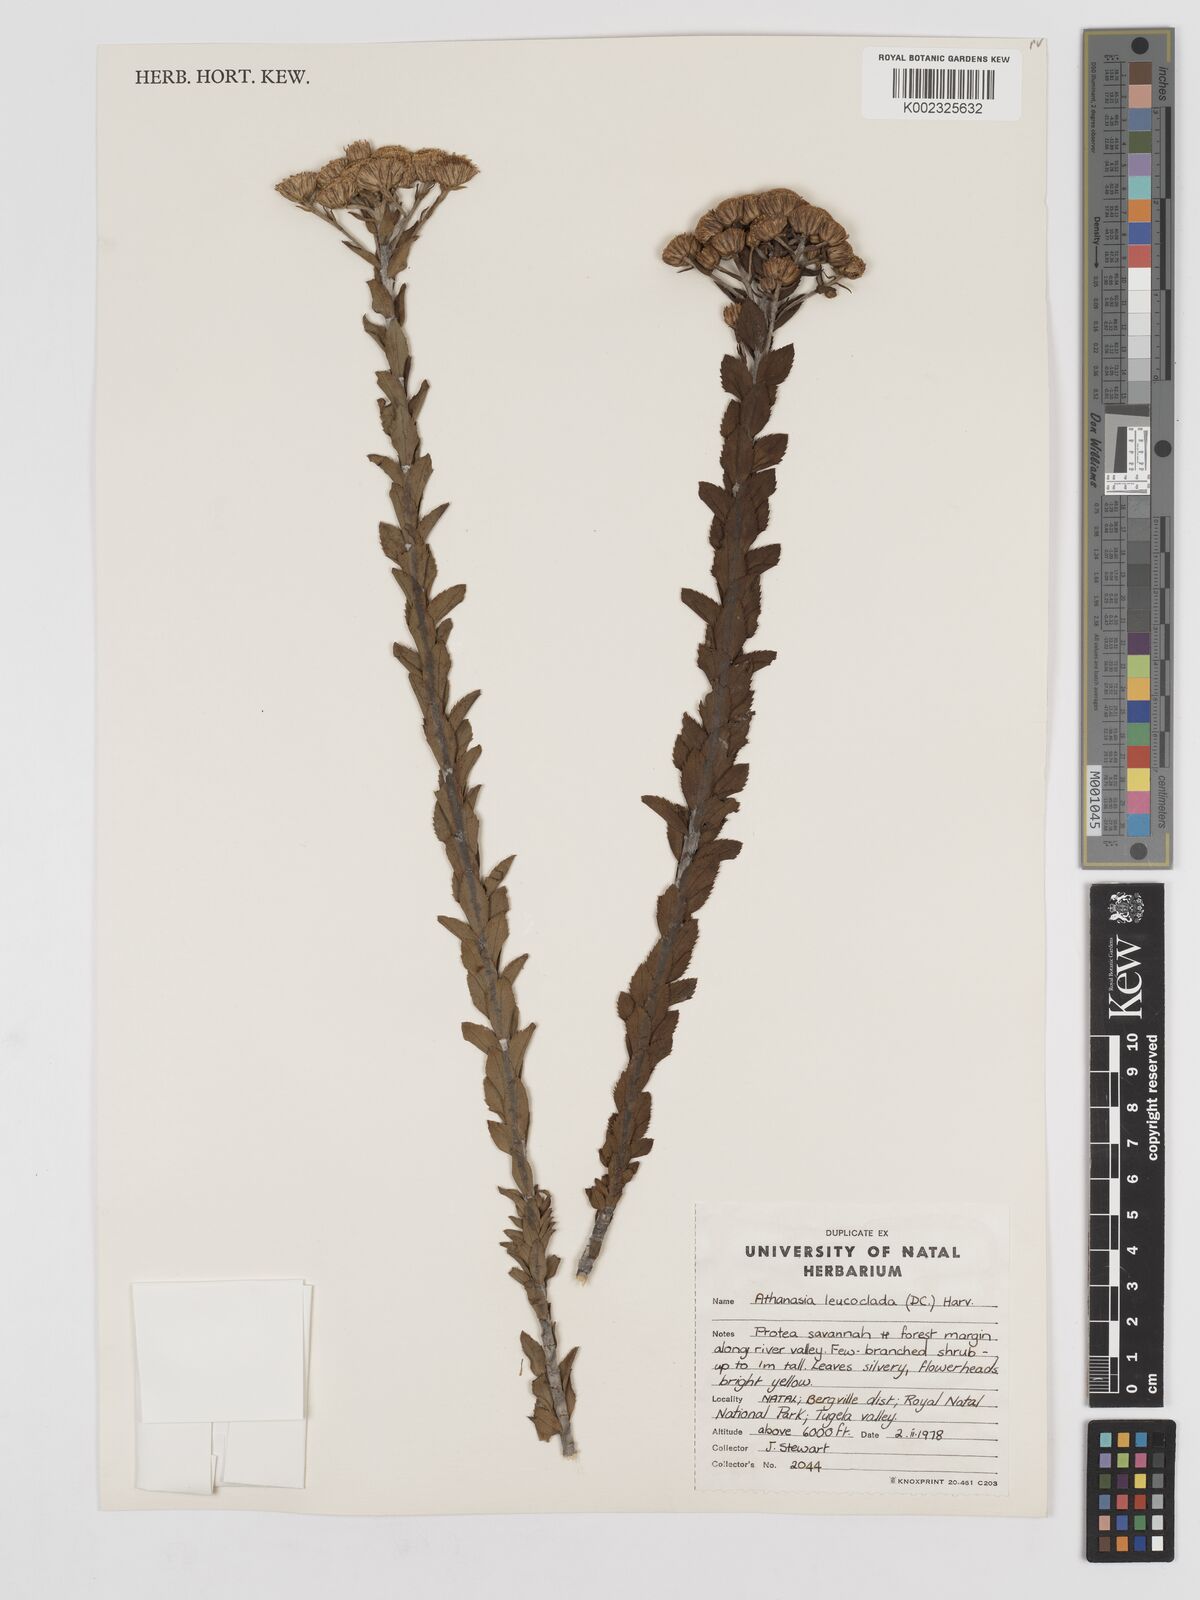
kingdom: Plantae
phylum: Tracheophyta
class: Magnoliopsida
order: Asterales
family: Asteraceae
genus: Inulanthera
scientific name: Inulanthera leucoclada
